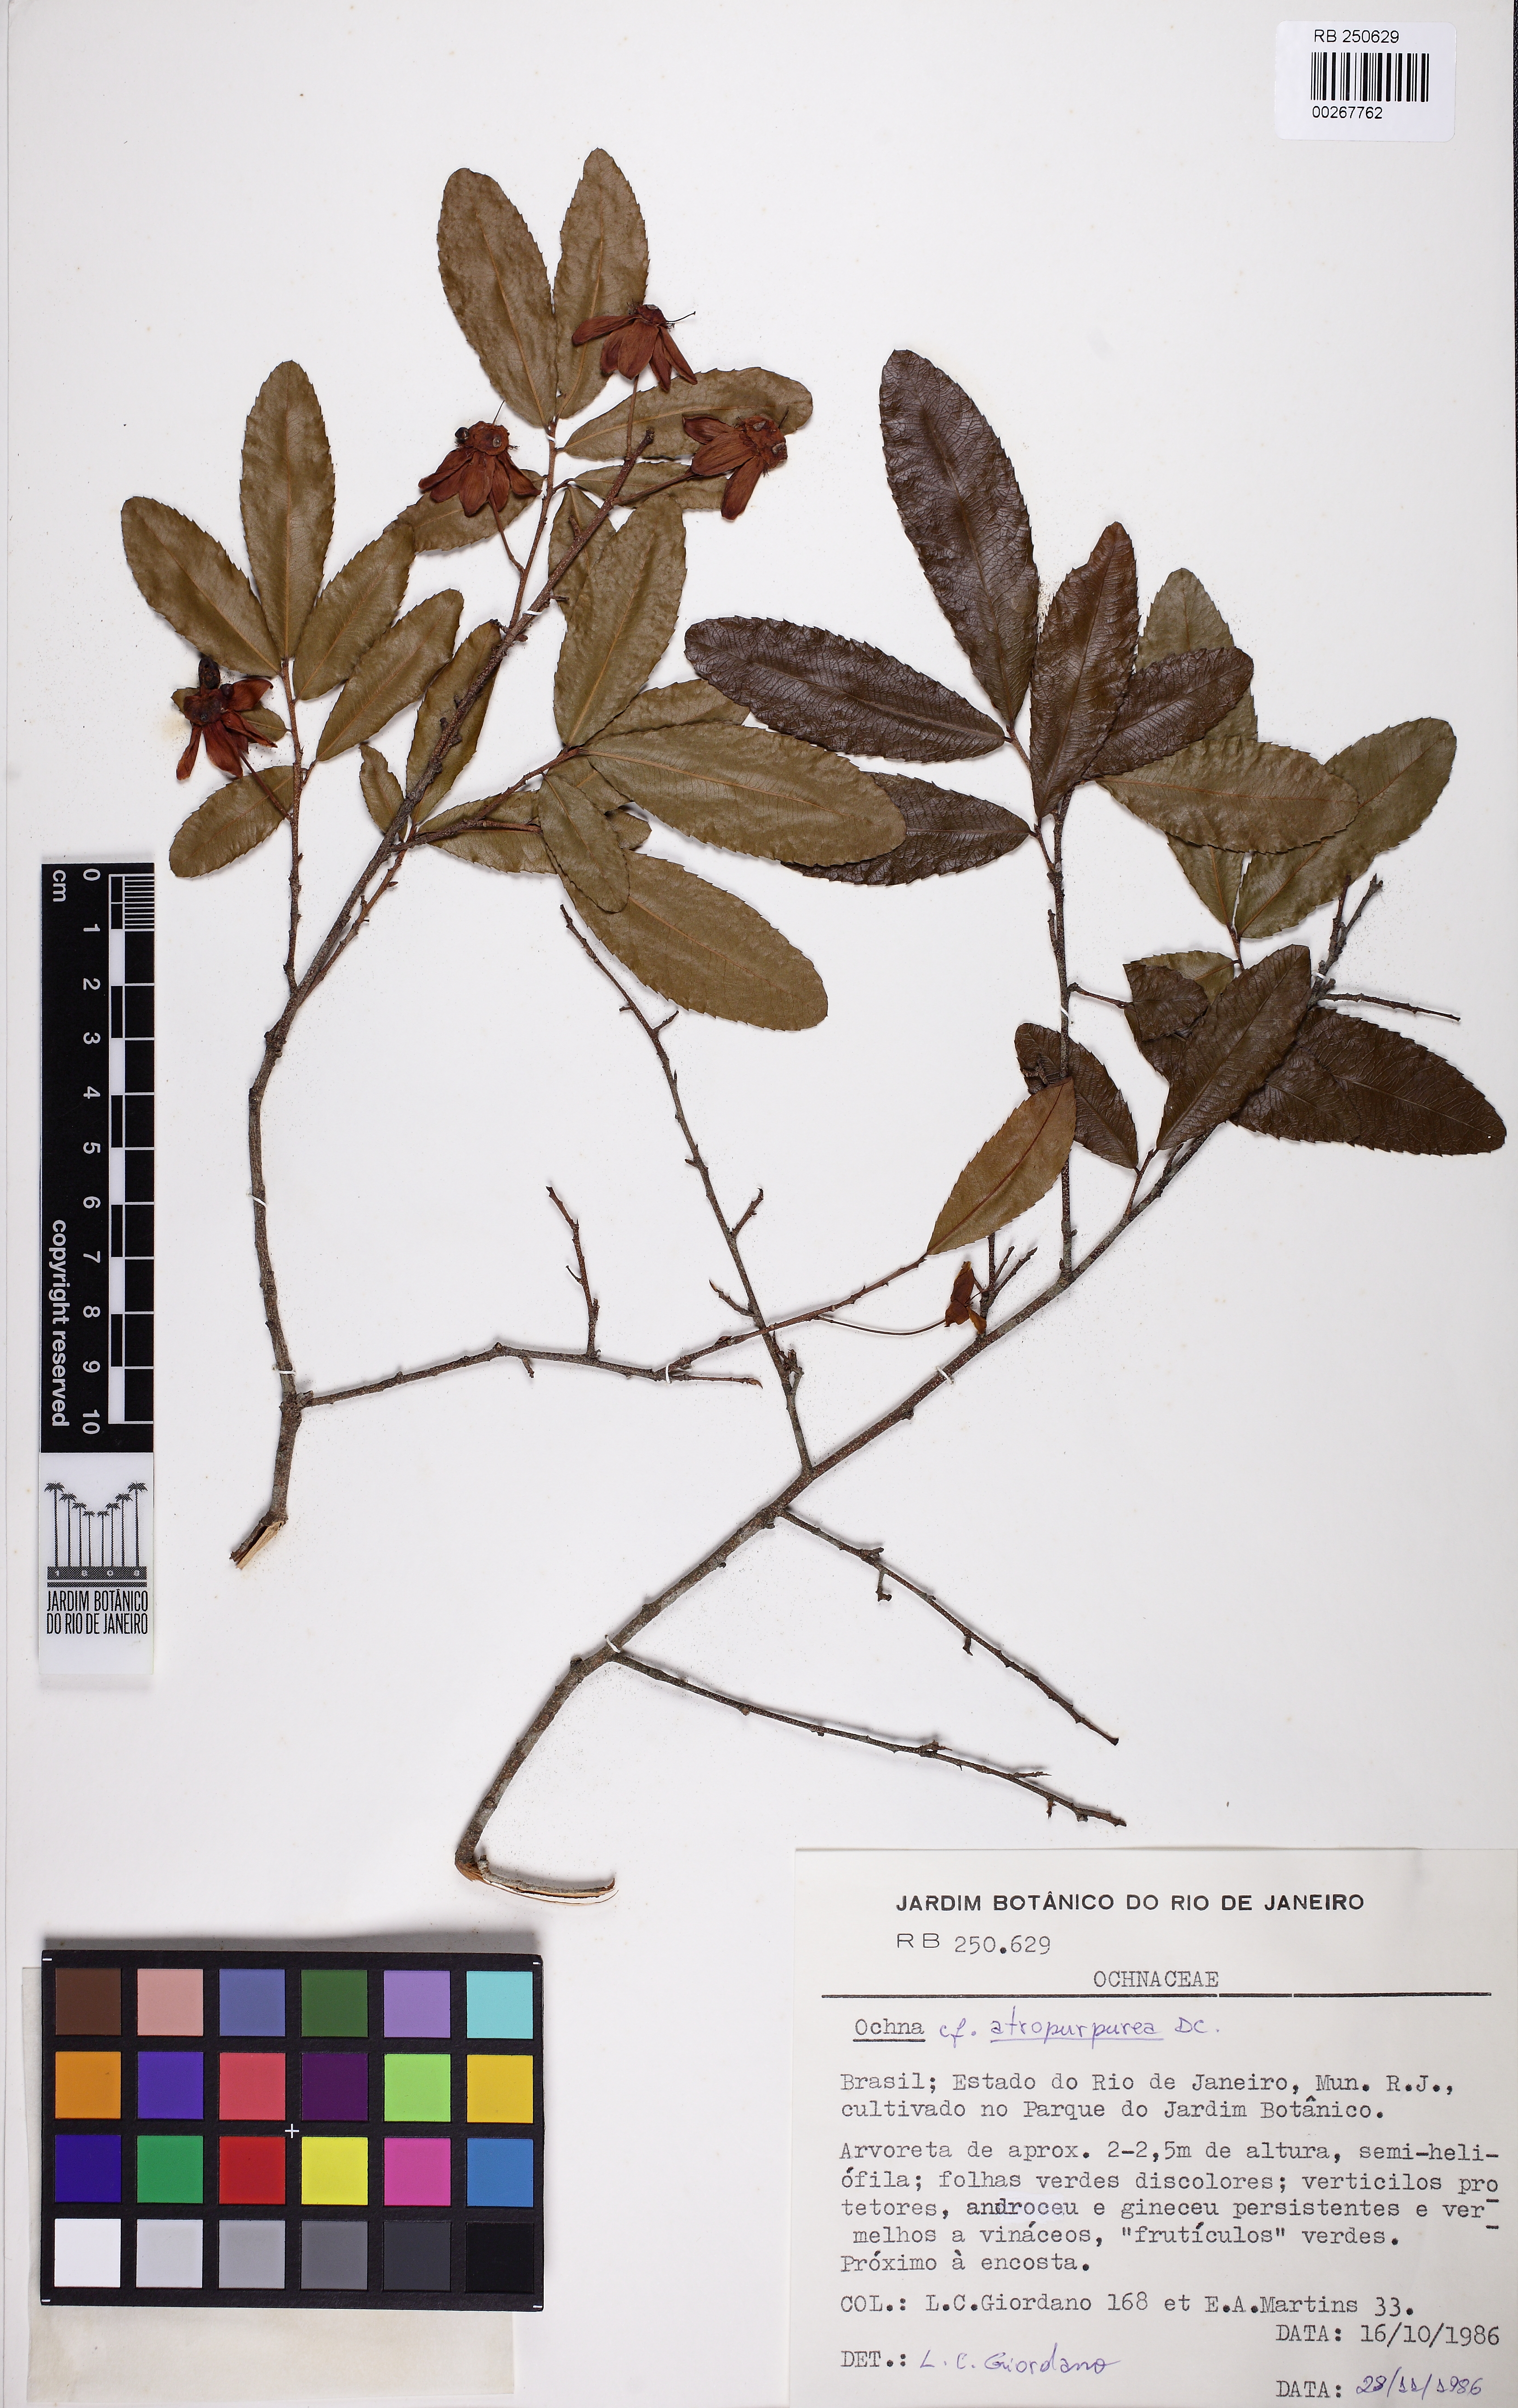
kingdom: Plantae
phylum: Tracheophyta
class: Magnoliopsida
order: Malpighiales
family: Ochnaceae
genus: Ochna
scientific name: Ochna atropurpurea
